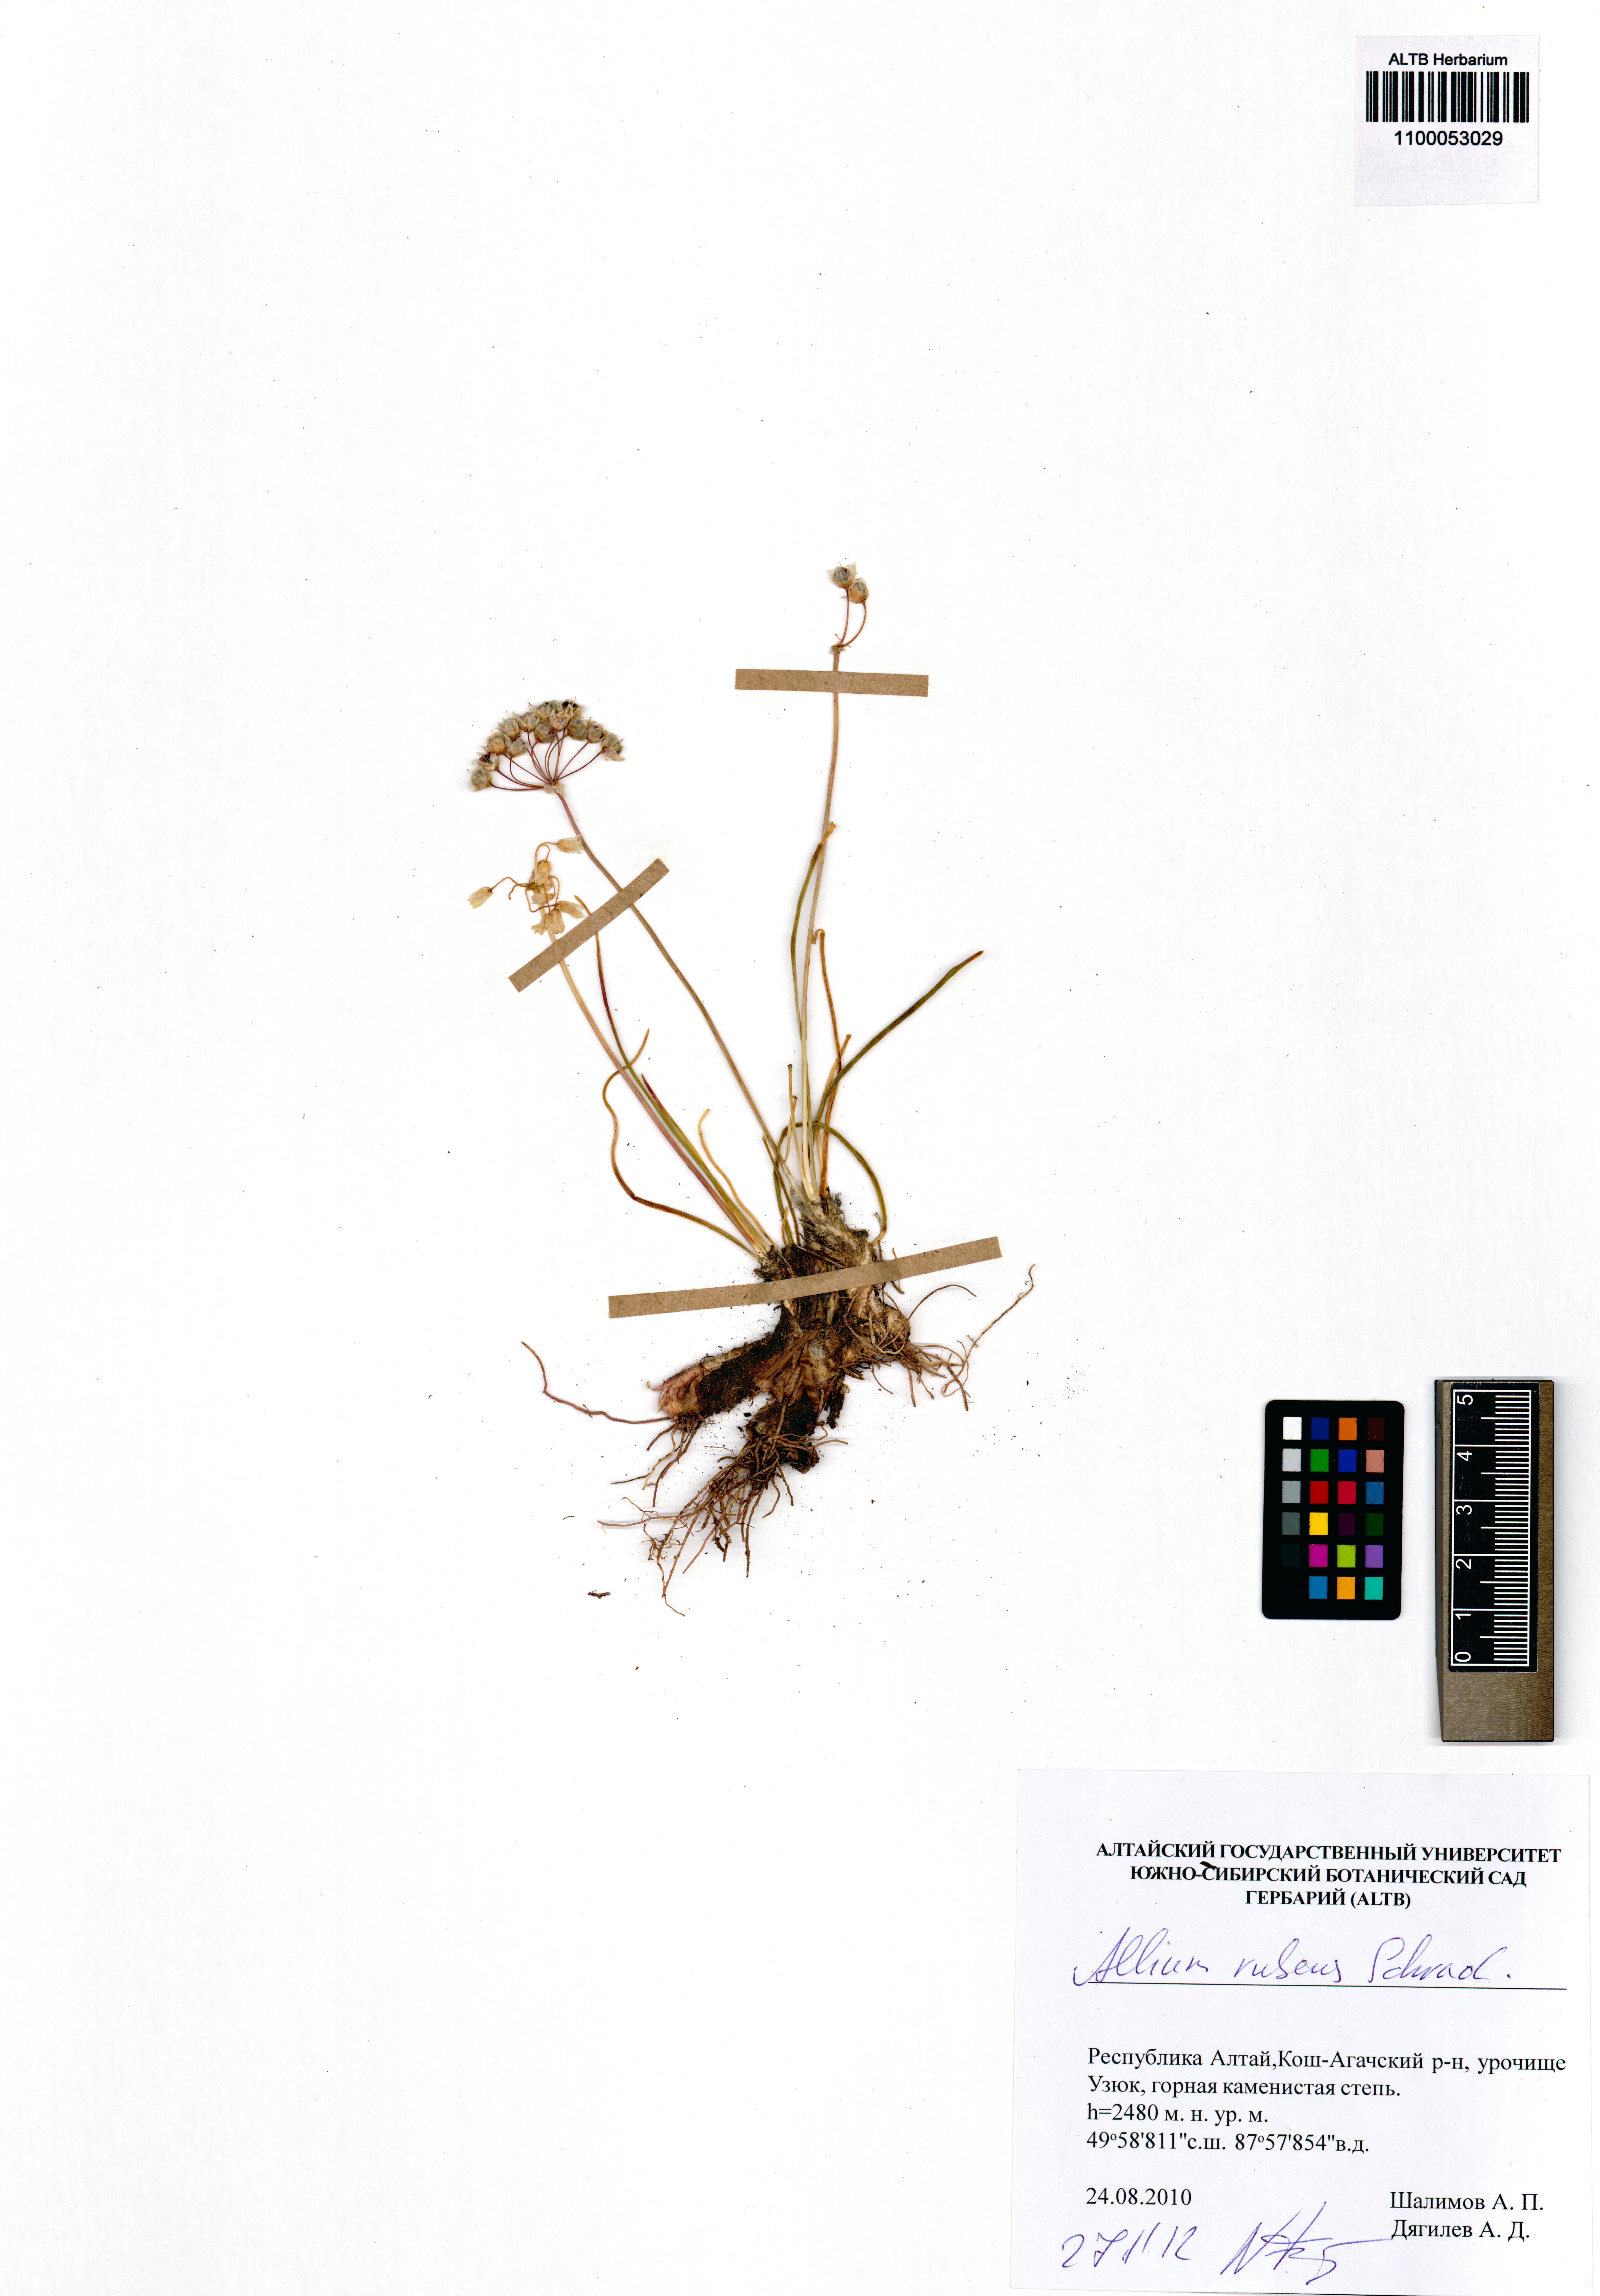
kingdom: Plantae
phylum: Tracheophyta
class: Liliopsida
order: Asparagales
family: Amaryllidaceae
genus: Allium
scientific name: Allium rubens
